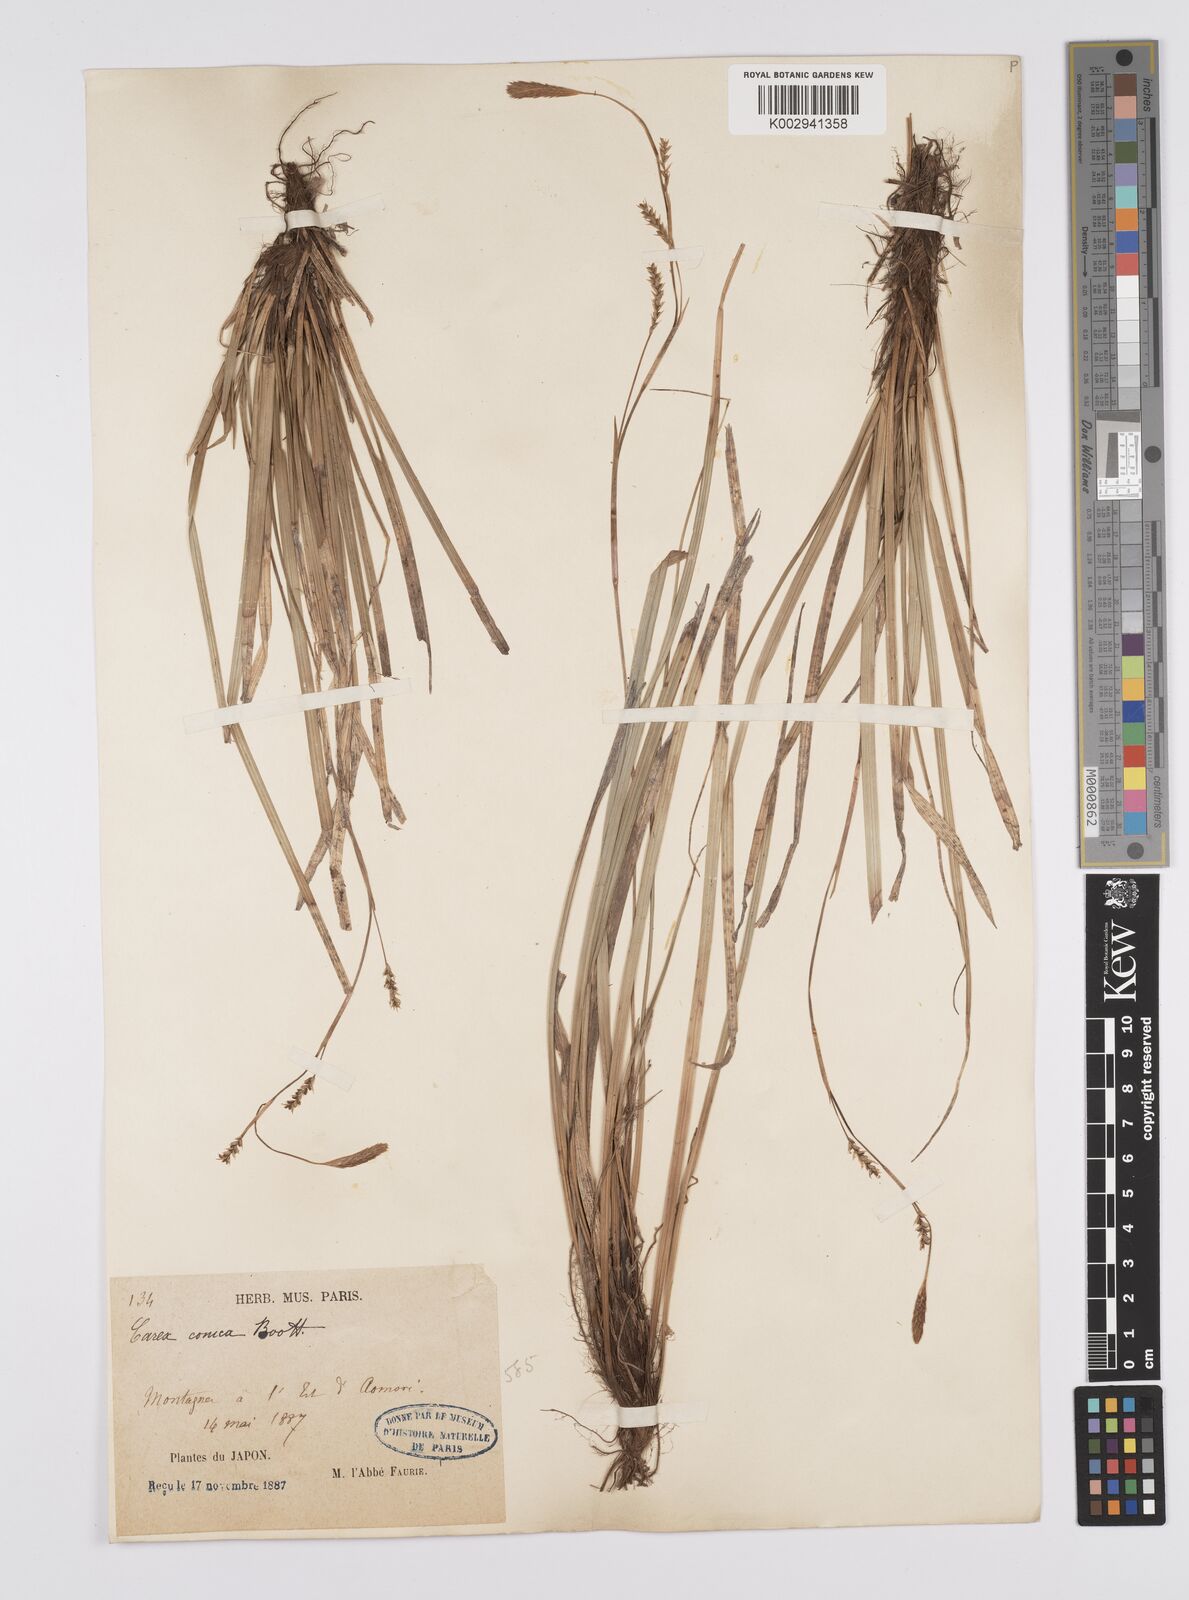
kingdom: Plantae
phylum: Tracheophyta
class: Liliopsida
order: Poales
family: Cyperaceae
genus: Carex
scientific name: Carex conica
